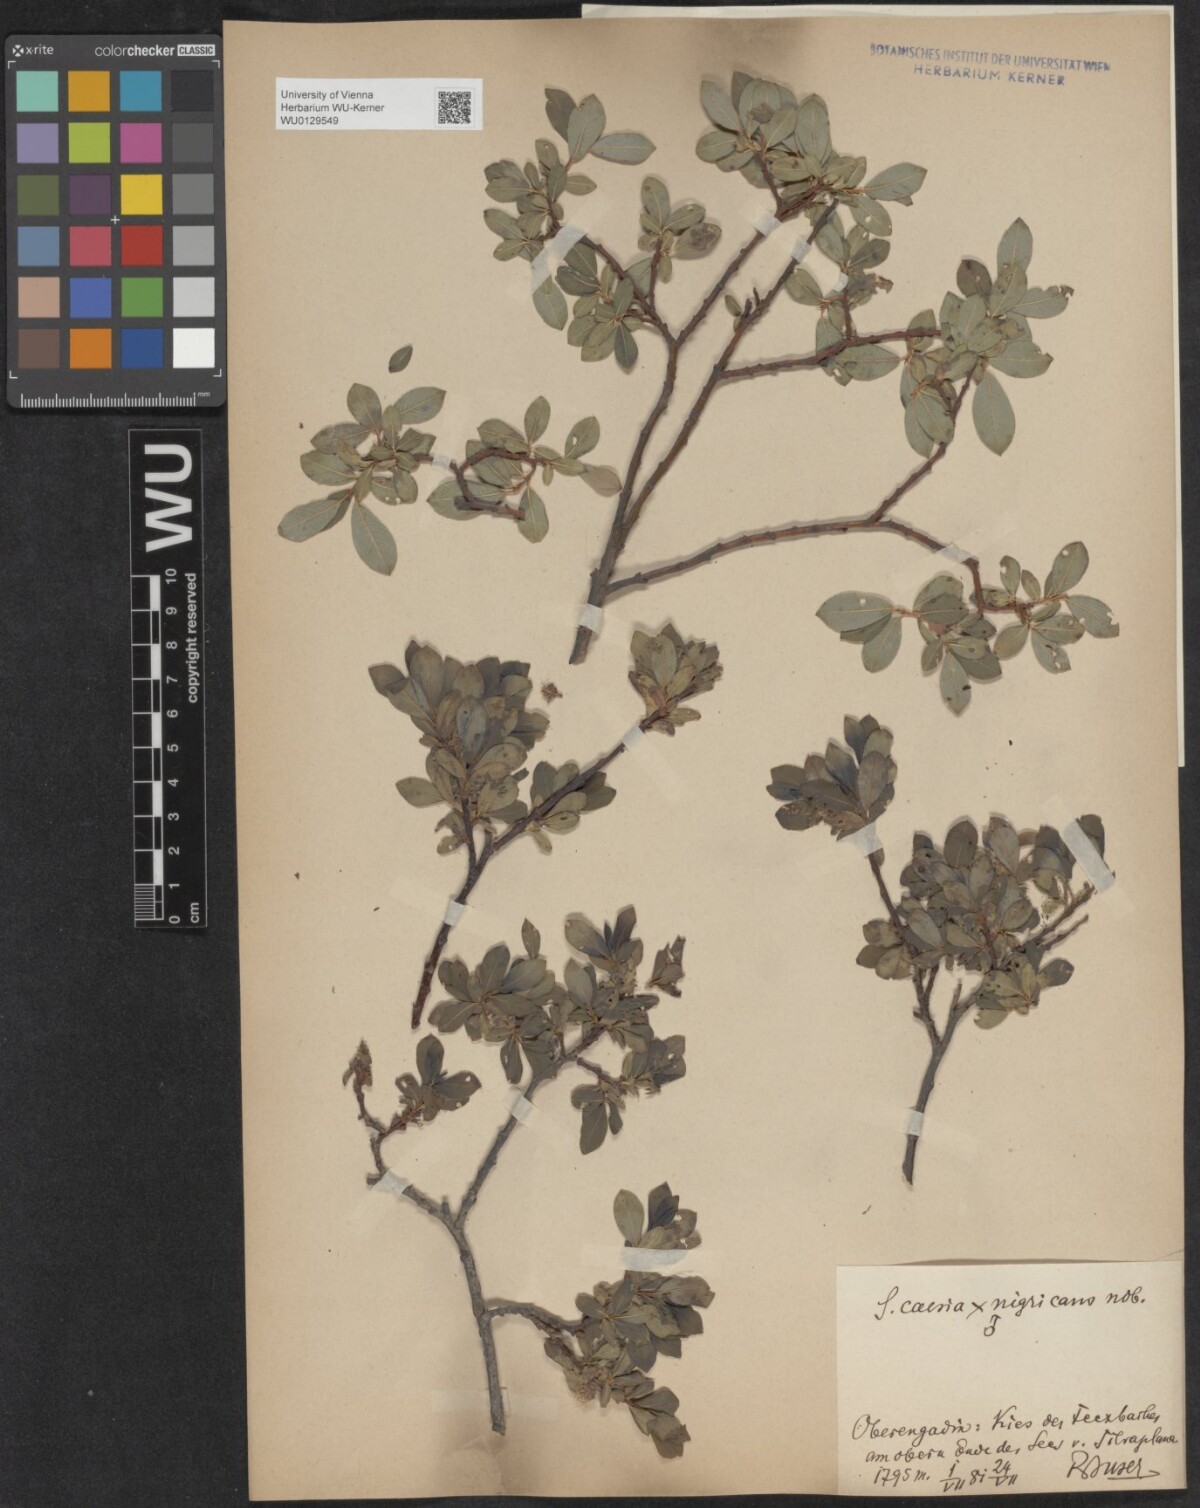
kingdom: Plantae
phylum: Tracheophyta
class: Magnoliopsida
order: Malpighiales
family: Salicaceae
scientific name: Salicaceae
